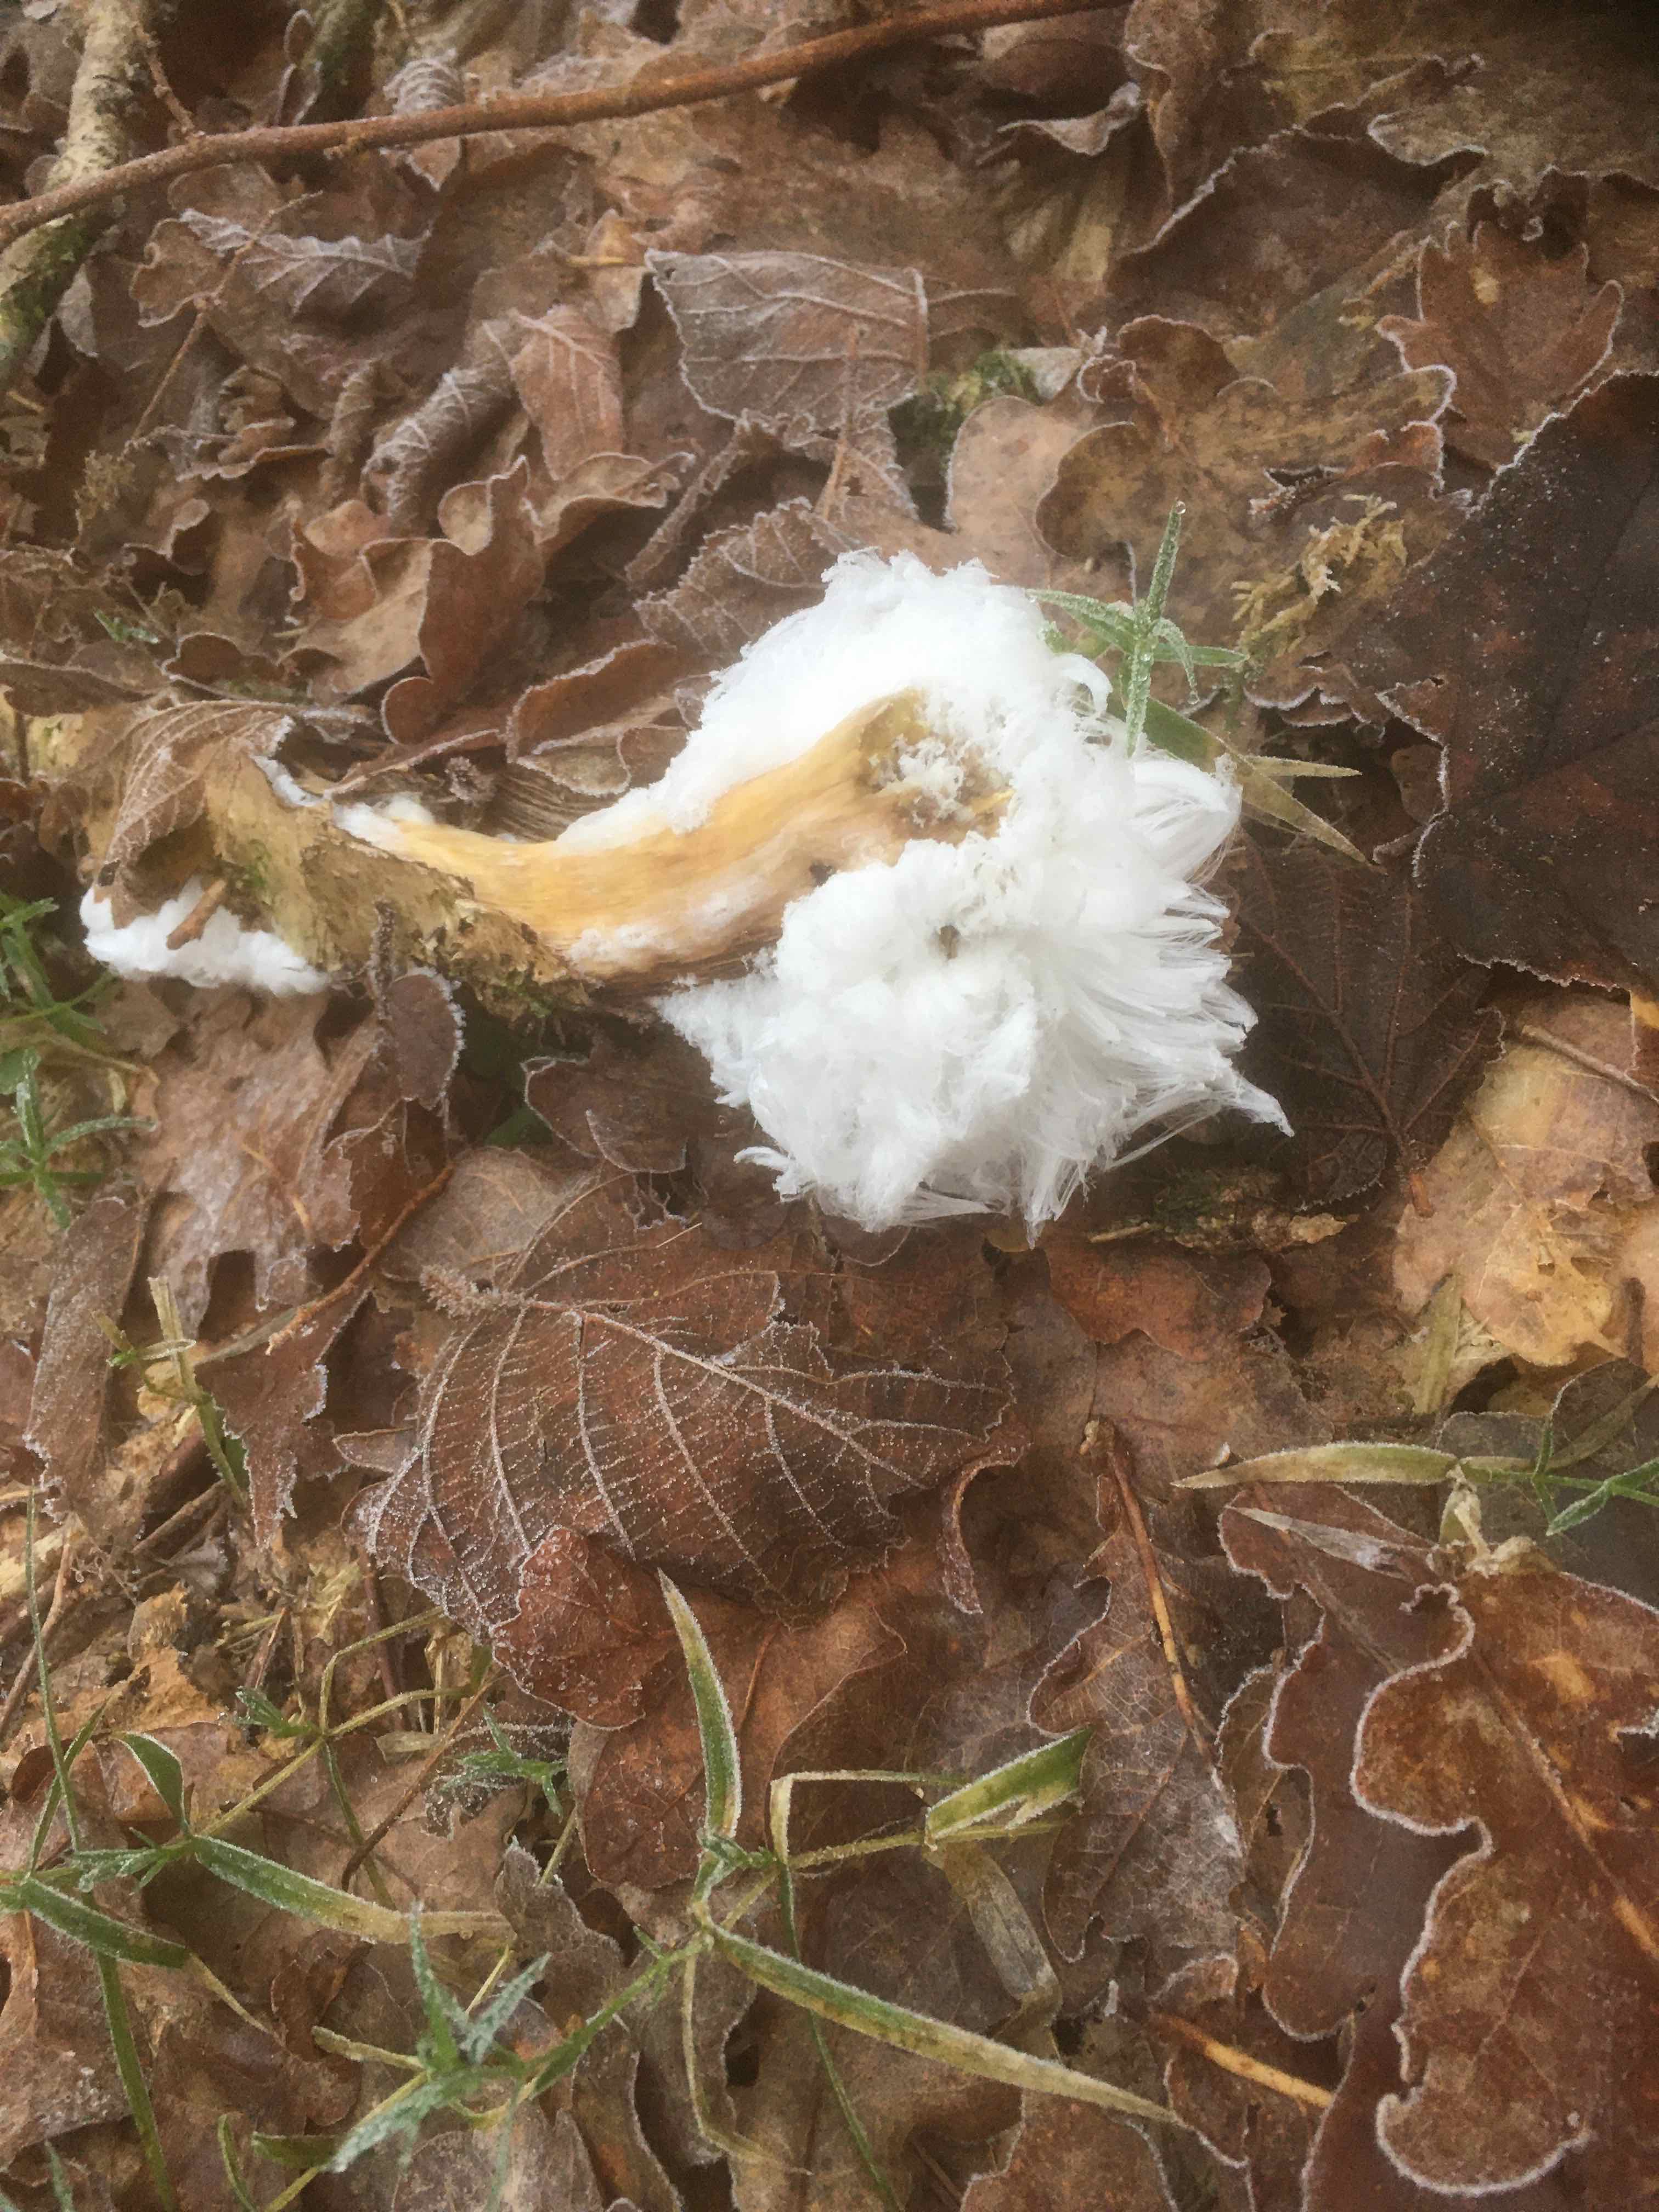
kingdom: Fungi
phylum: Basidiomycota
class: Tremellomycetes
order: Tremellales
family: Exidiaceae
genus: Exidiopsis
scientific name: Exidiopsis effusa
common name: smuk bævrehinde
